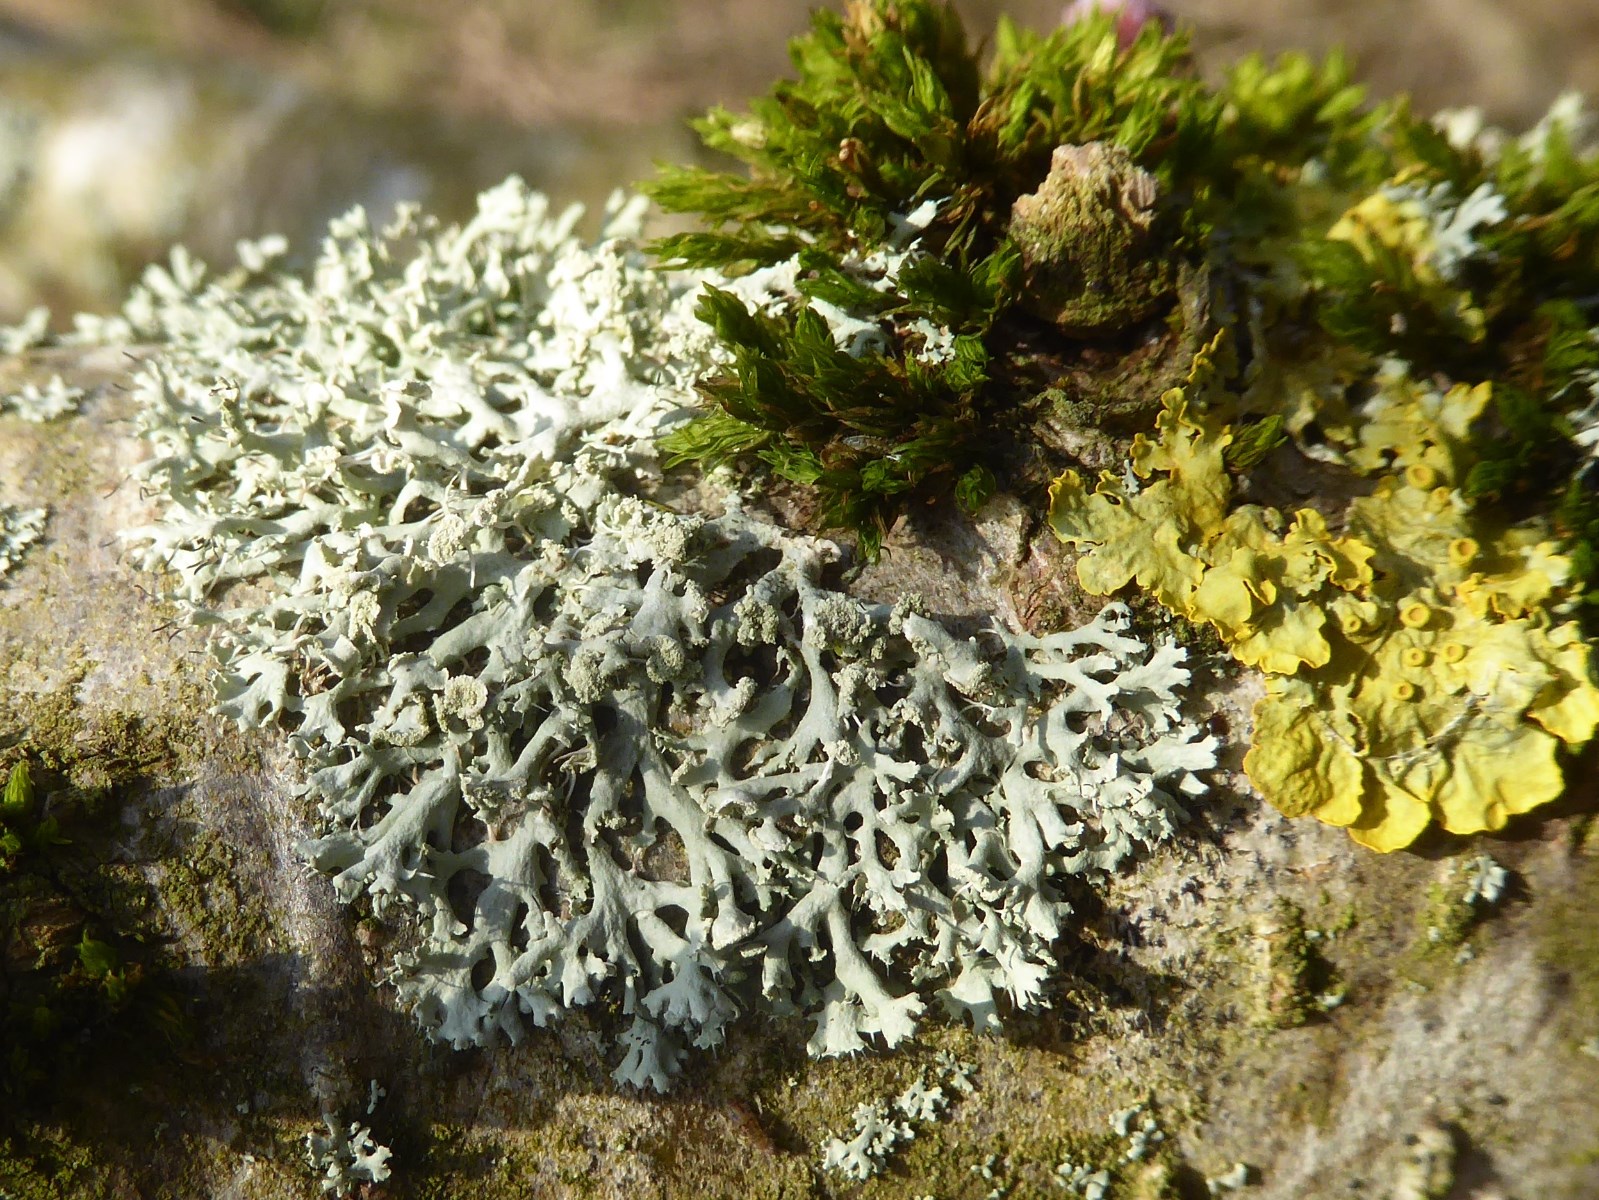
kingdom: Fungi
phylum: Ascomycota
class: Lecanoromycetes
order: Caliciales
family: Physciaceae
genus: Physcia
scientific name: Physcia tenella
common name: spæd rosetlav
